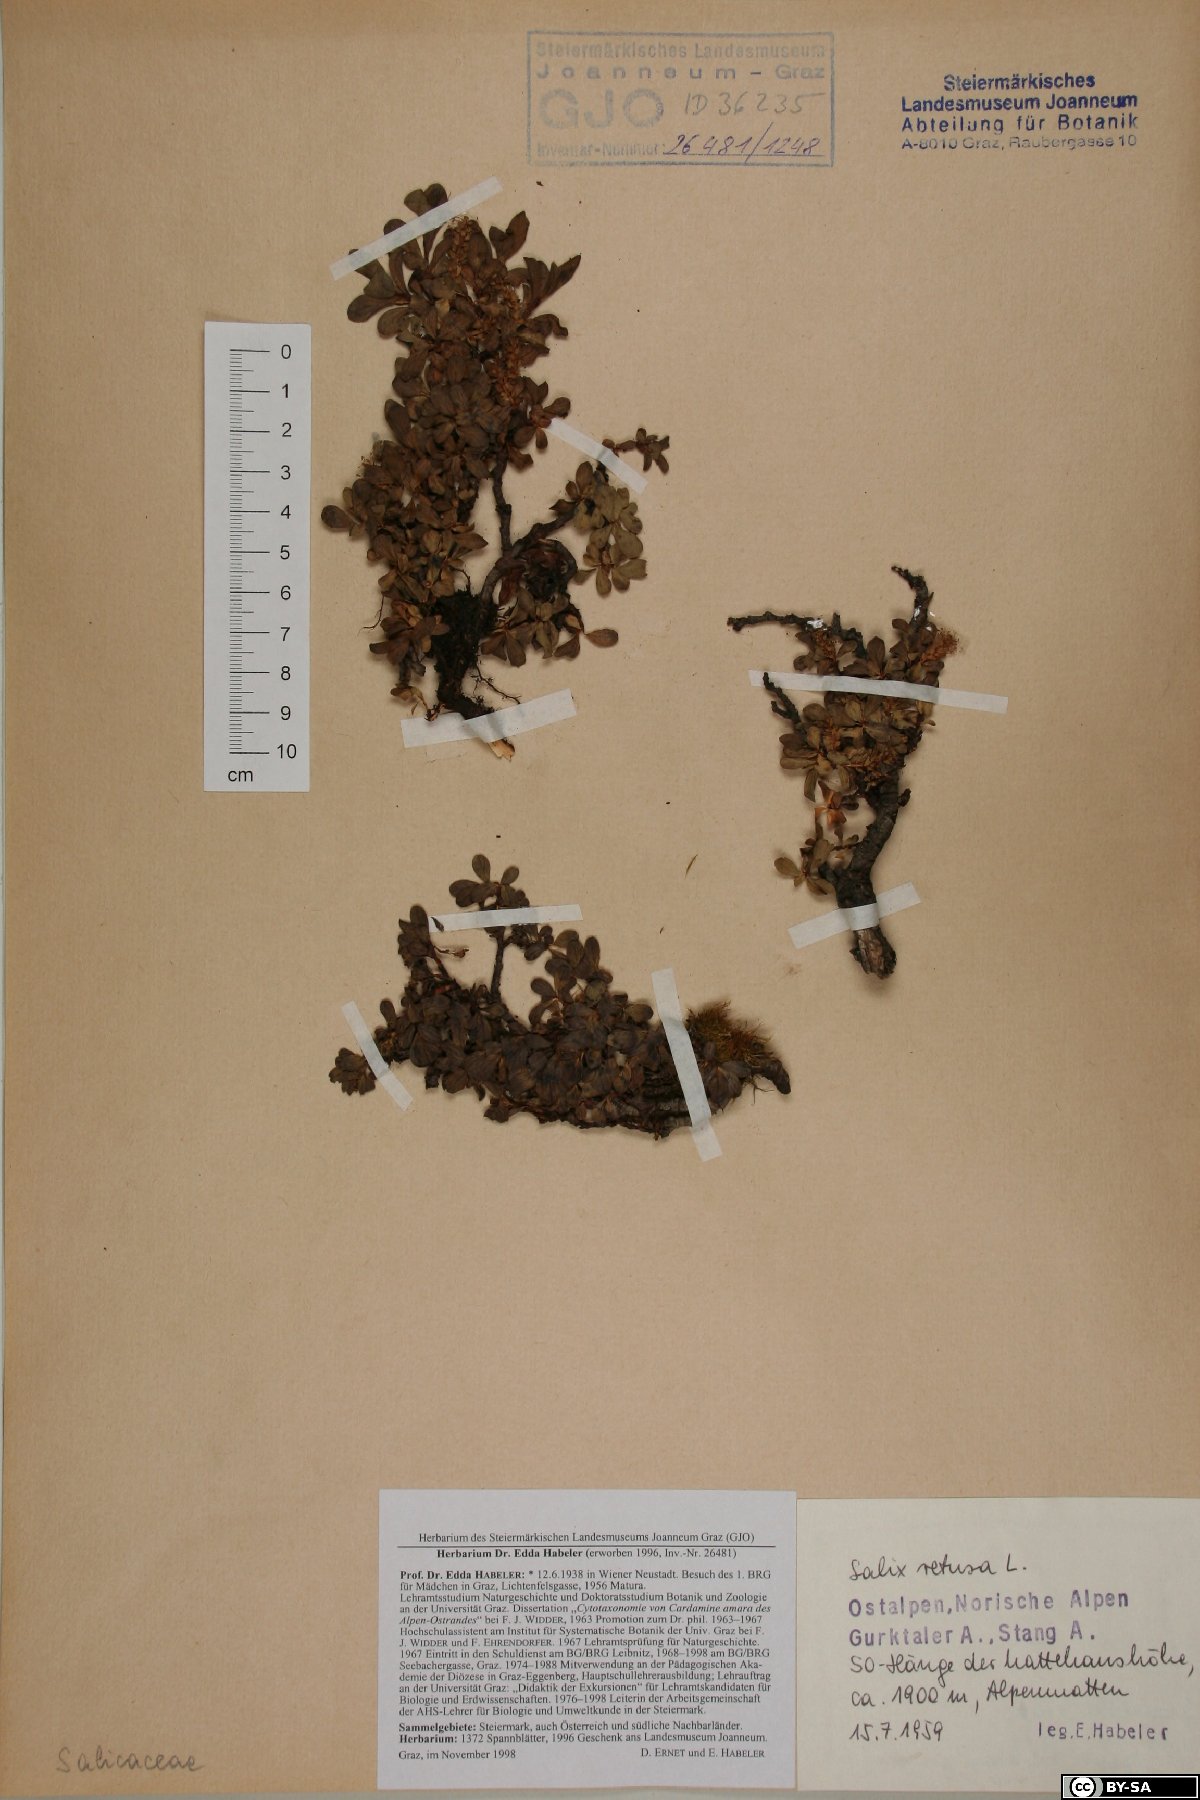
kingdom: Plantae
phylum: Tracheophyta
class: Magnoliopsida
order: Malpighiales
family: Salicaceae
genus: Salix
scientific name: Salix retusa
